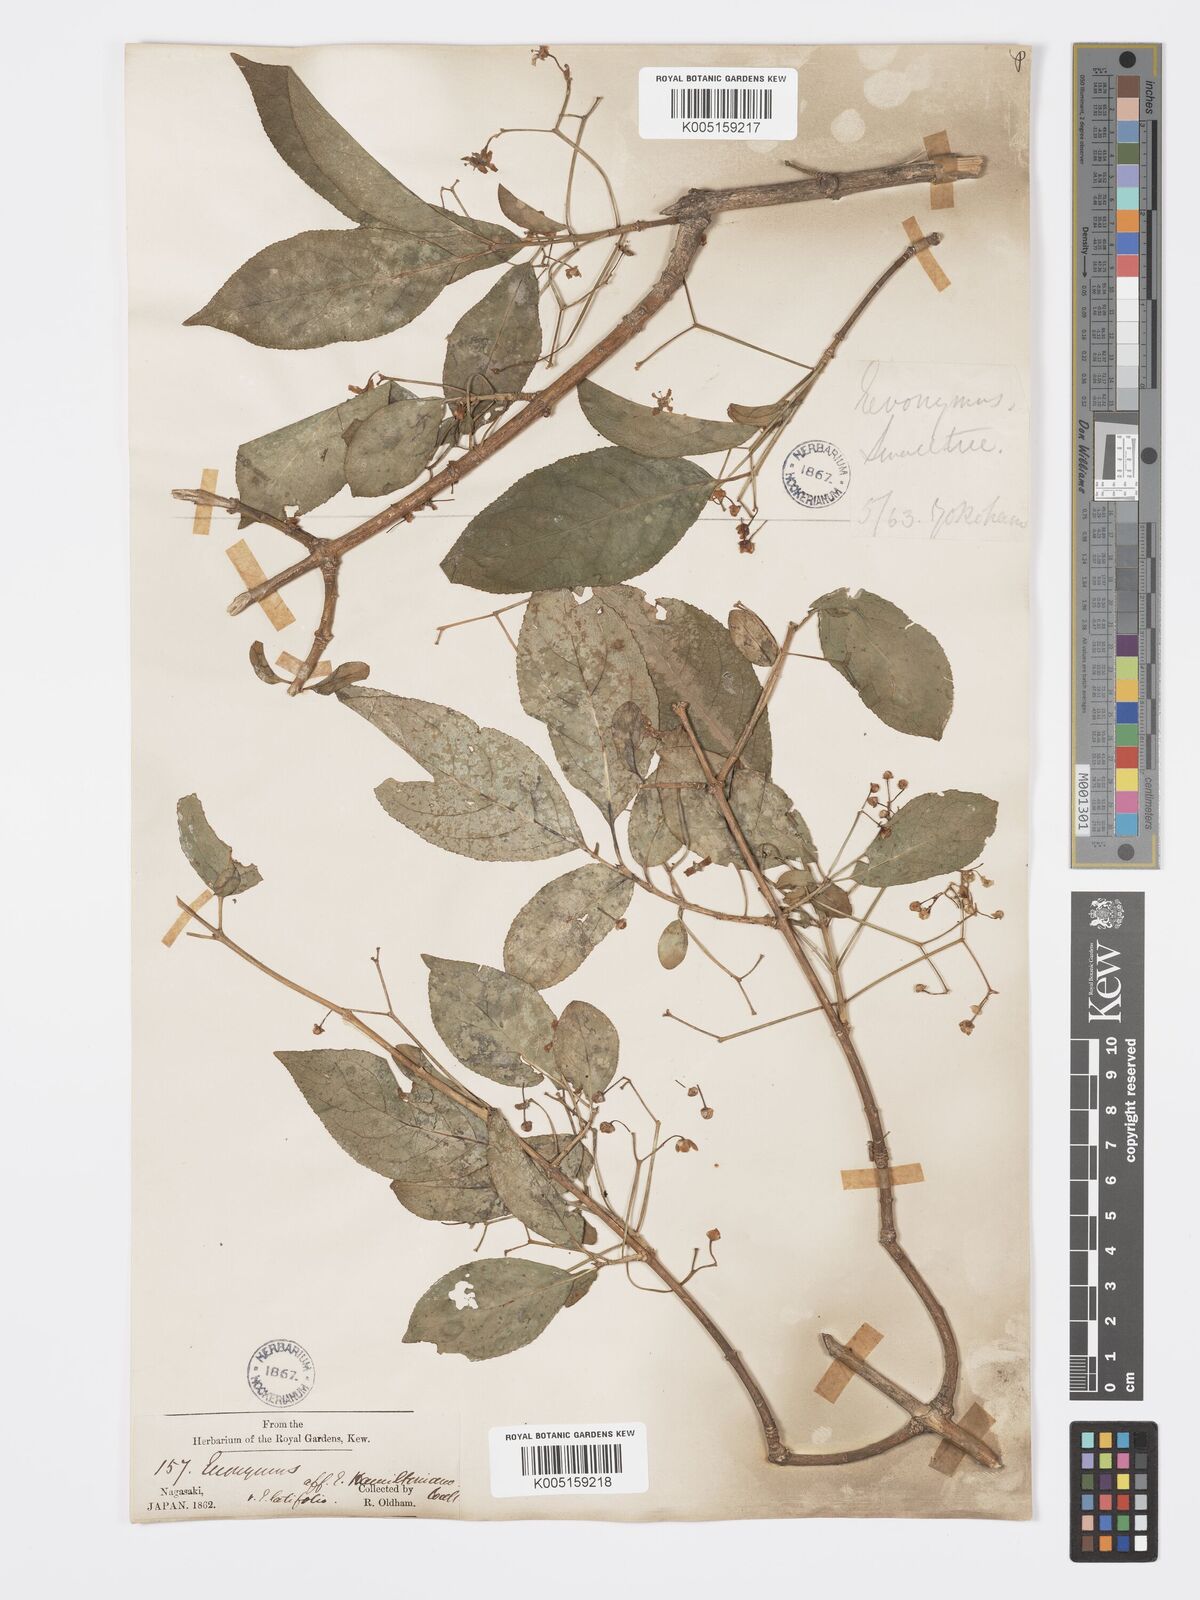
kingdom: Plantae
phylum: Tracheophyta
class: Magnoliopsida
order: Celastrales
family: Celastraceae
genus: Euonymus
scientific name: Euonymus hamiltonianus
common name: Hamilton's spindletree
